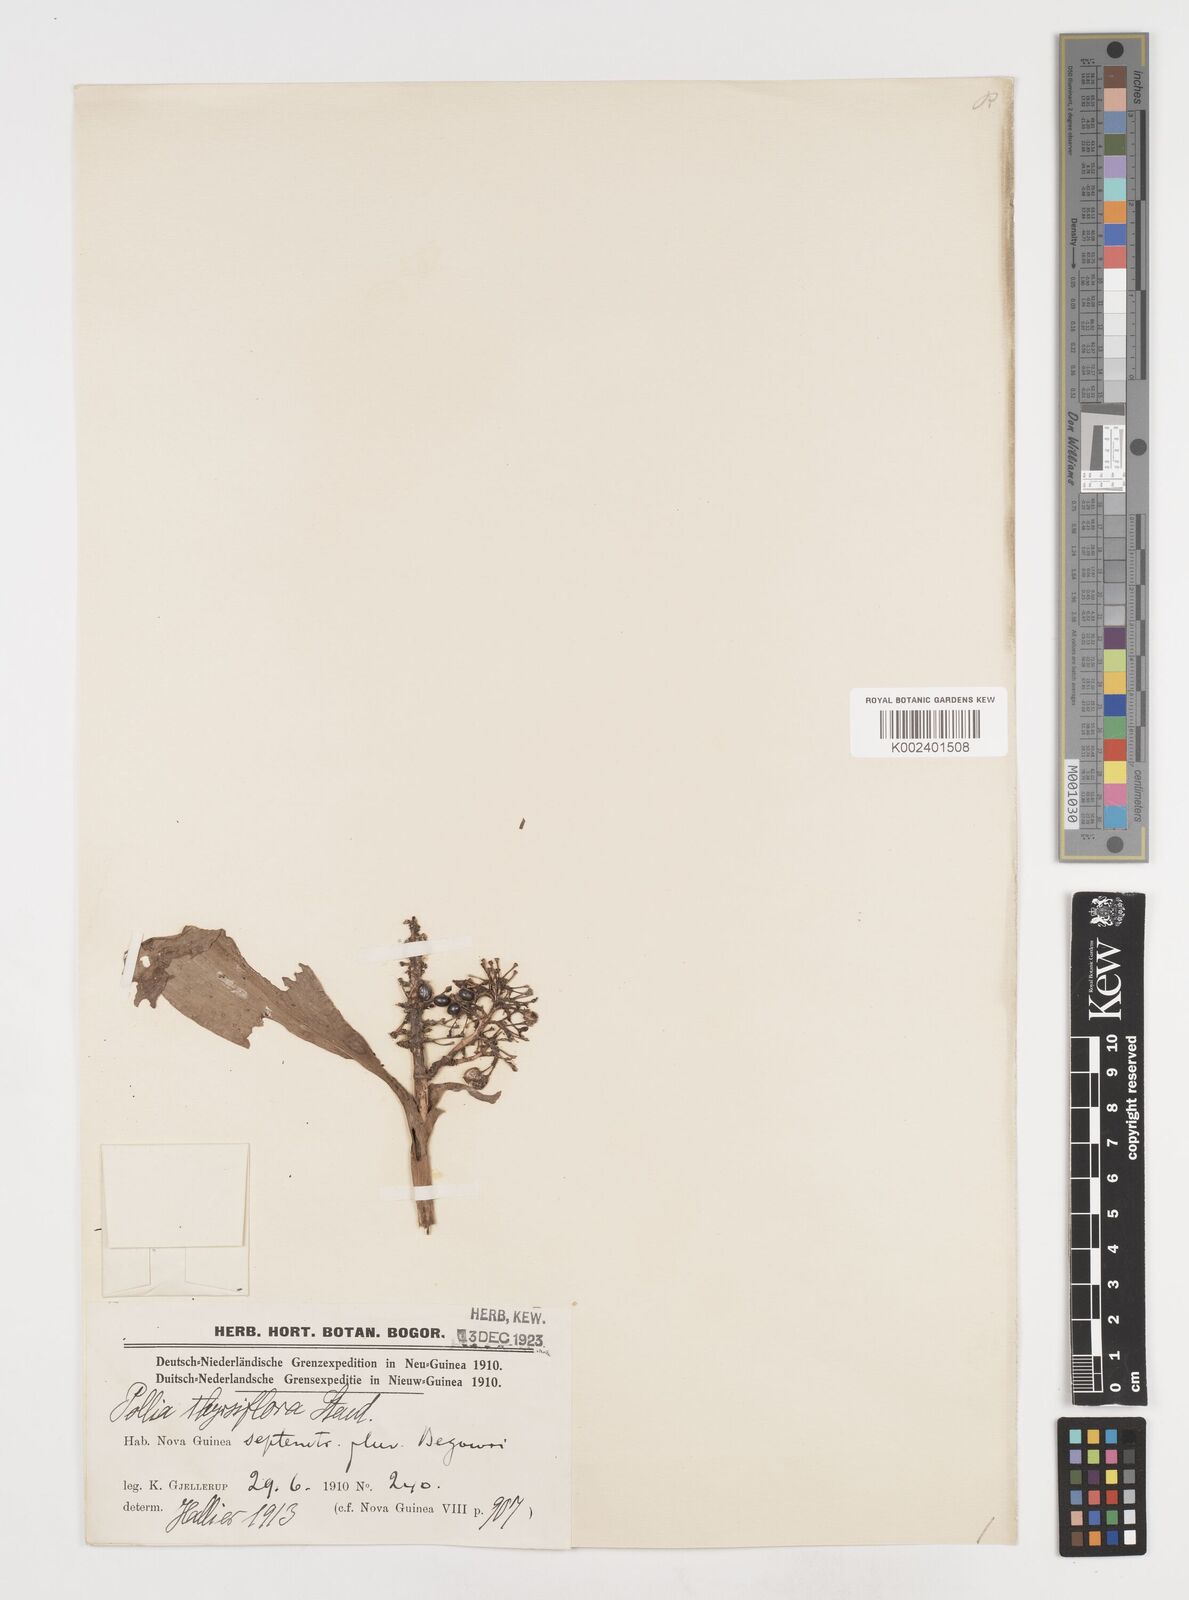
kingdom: Plantae
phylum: Tracheophyta
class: Liliopsida
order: Commelinales
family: Commelinaceae
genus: Pollia
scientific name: Pollia thyrsiflora
